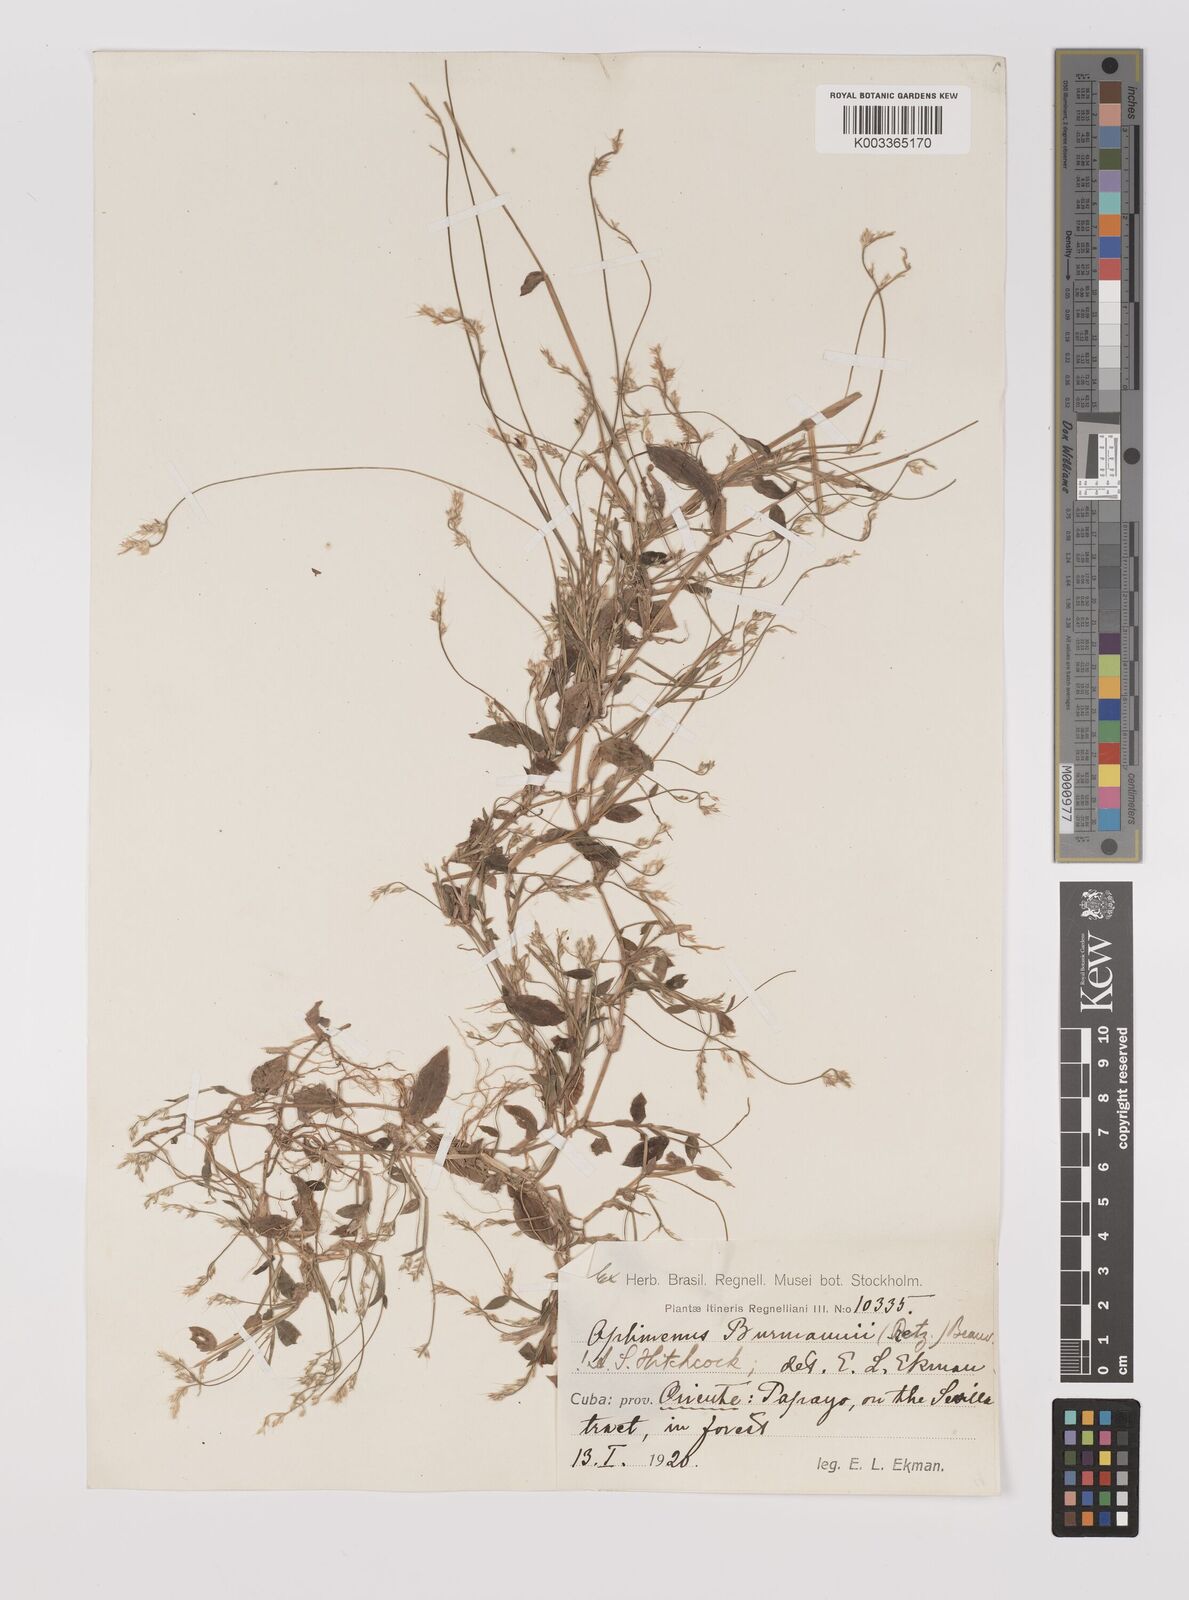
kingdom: Plantae
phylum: Tracheophyta
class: Liliopsida
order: Poales
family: Poaceae
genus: Oplismenus
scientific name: Oplismenus burmanni
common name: Burmann's basketgrass
